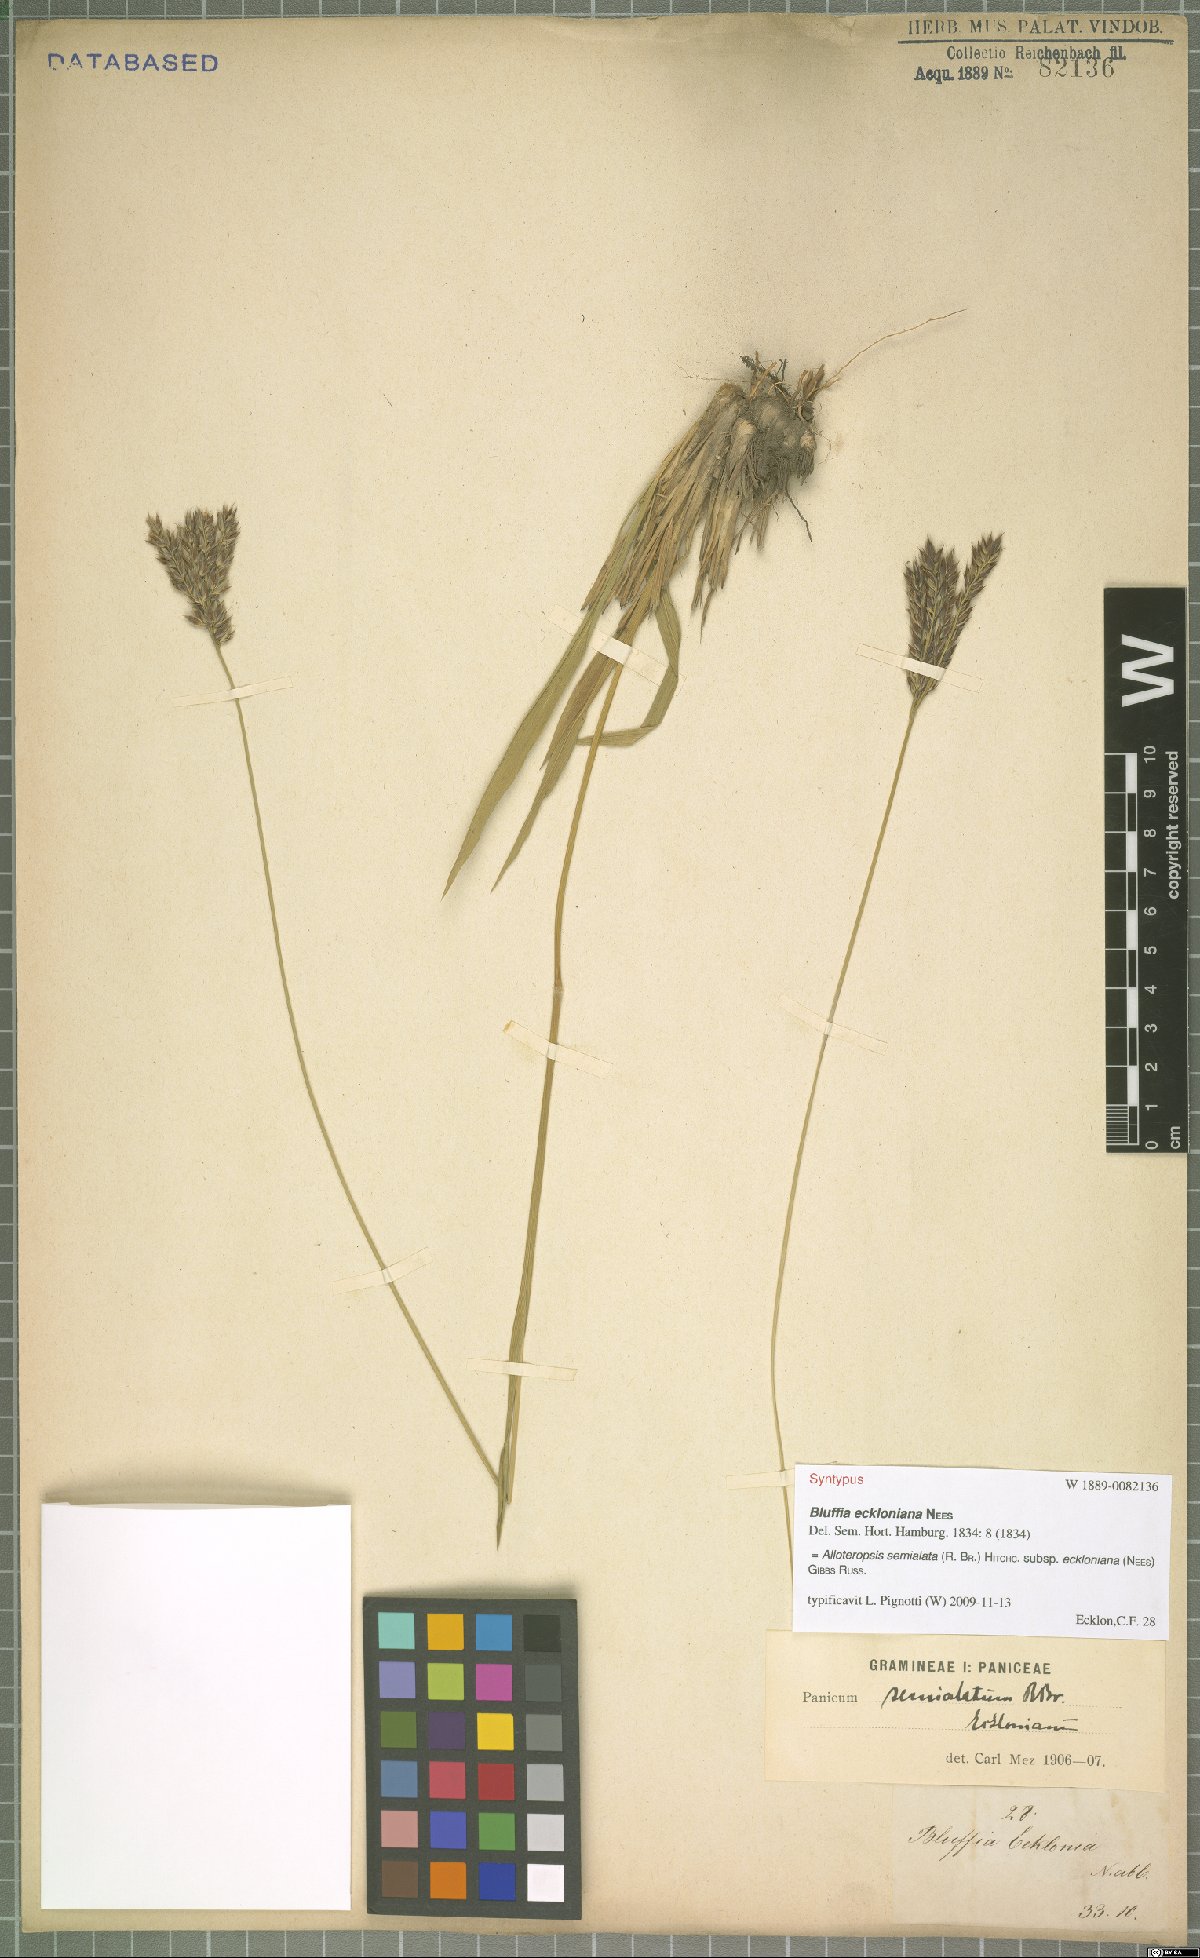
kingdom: Plantae
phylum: Tracheophyta
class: Liliopsida
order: Poales
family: Poaceae
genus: Alloteropsis
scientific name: Alloteropsis semialata
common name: Cockatoo grass
